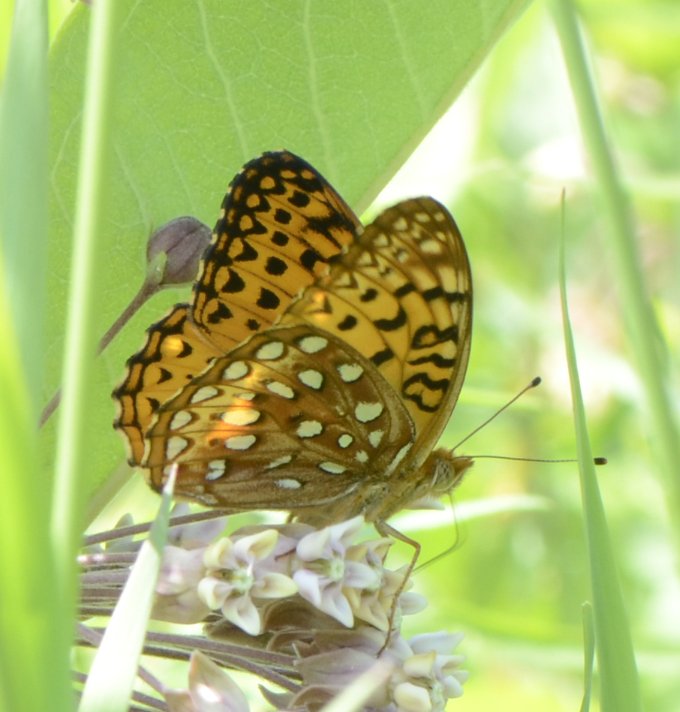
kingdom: Animalia
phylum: Arthropoda
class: Insecta
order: Lepidoptera
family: Nymphalidae
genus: Speyeria
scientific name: Speyeria aphrodite
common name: Aphrodite Fritillary
